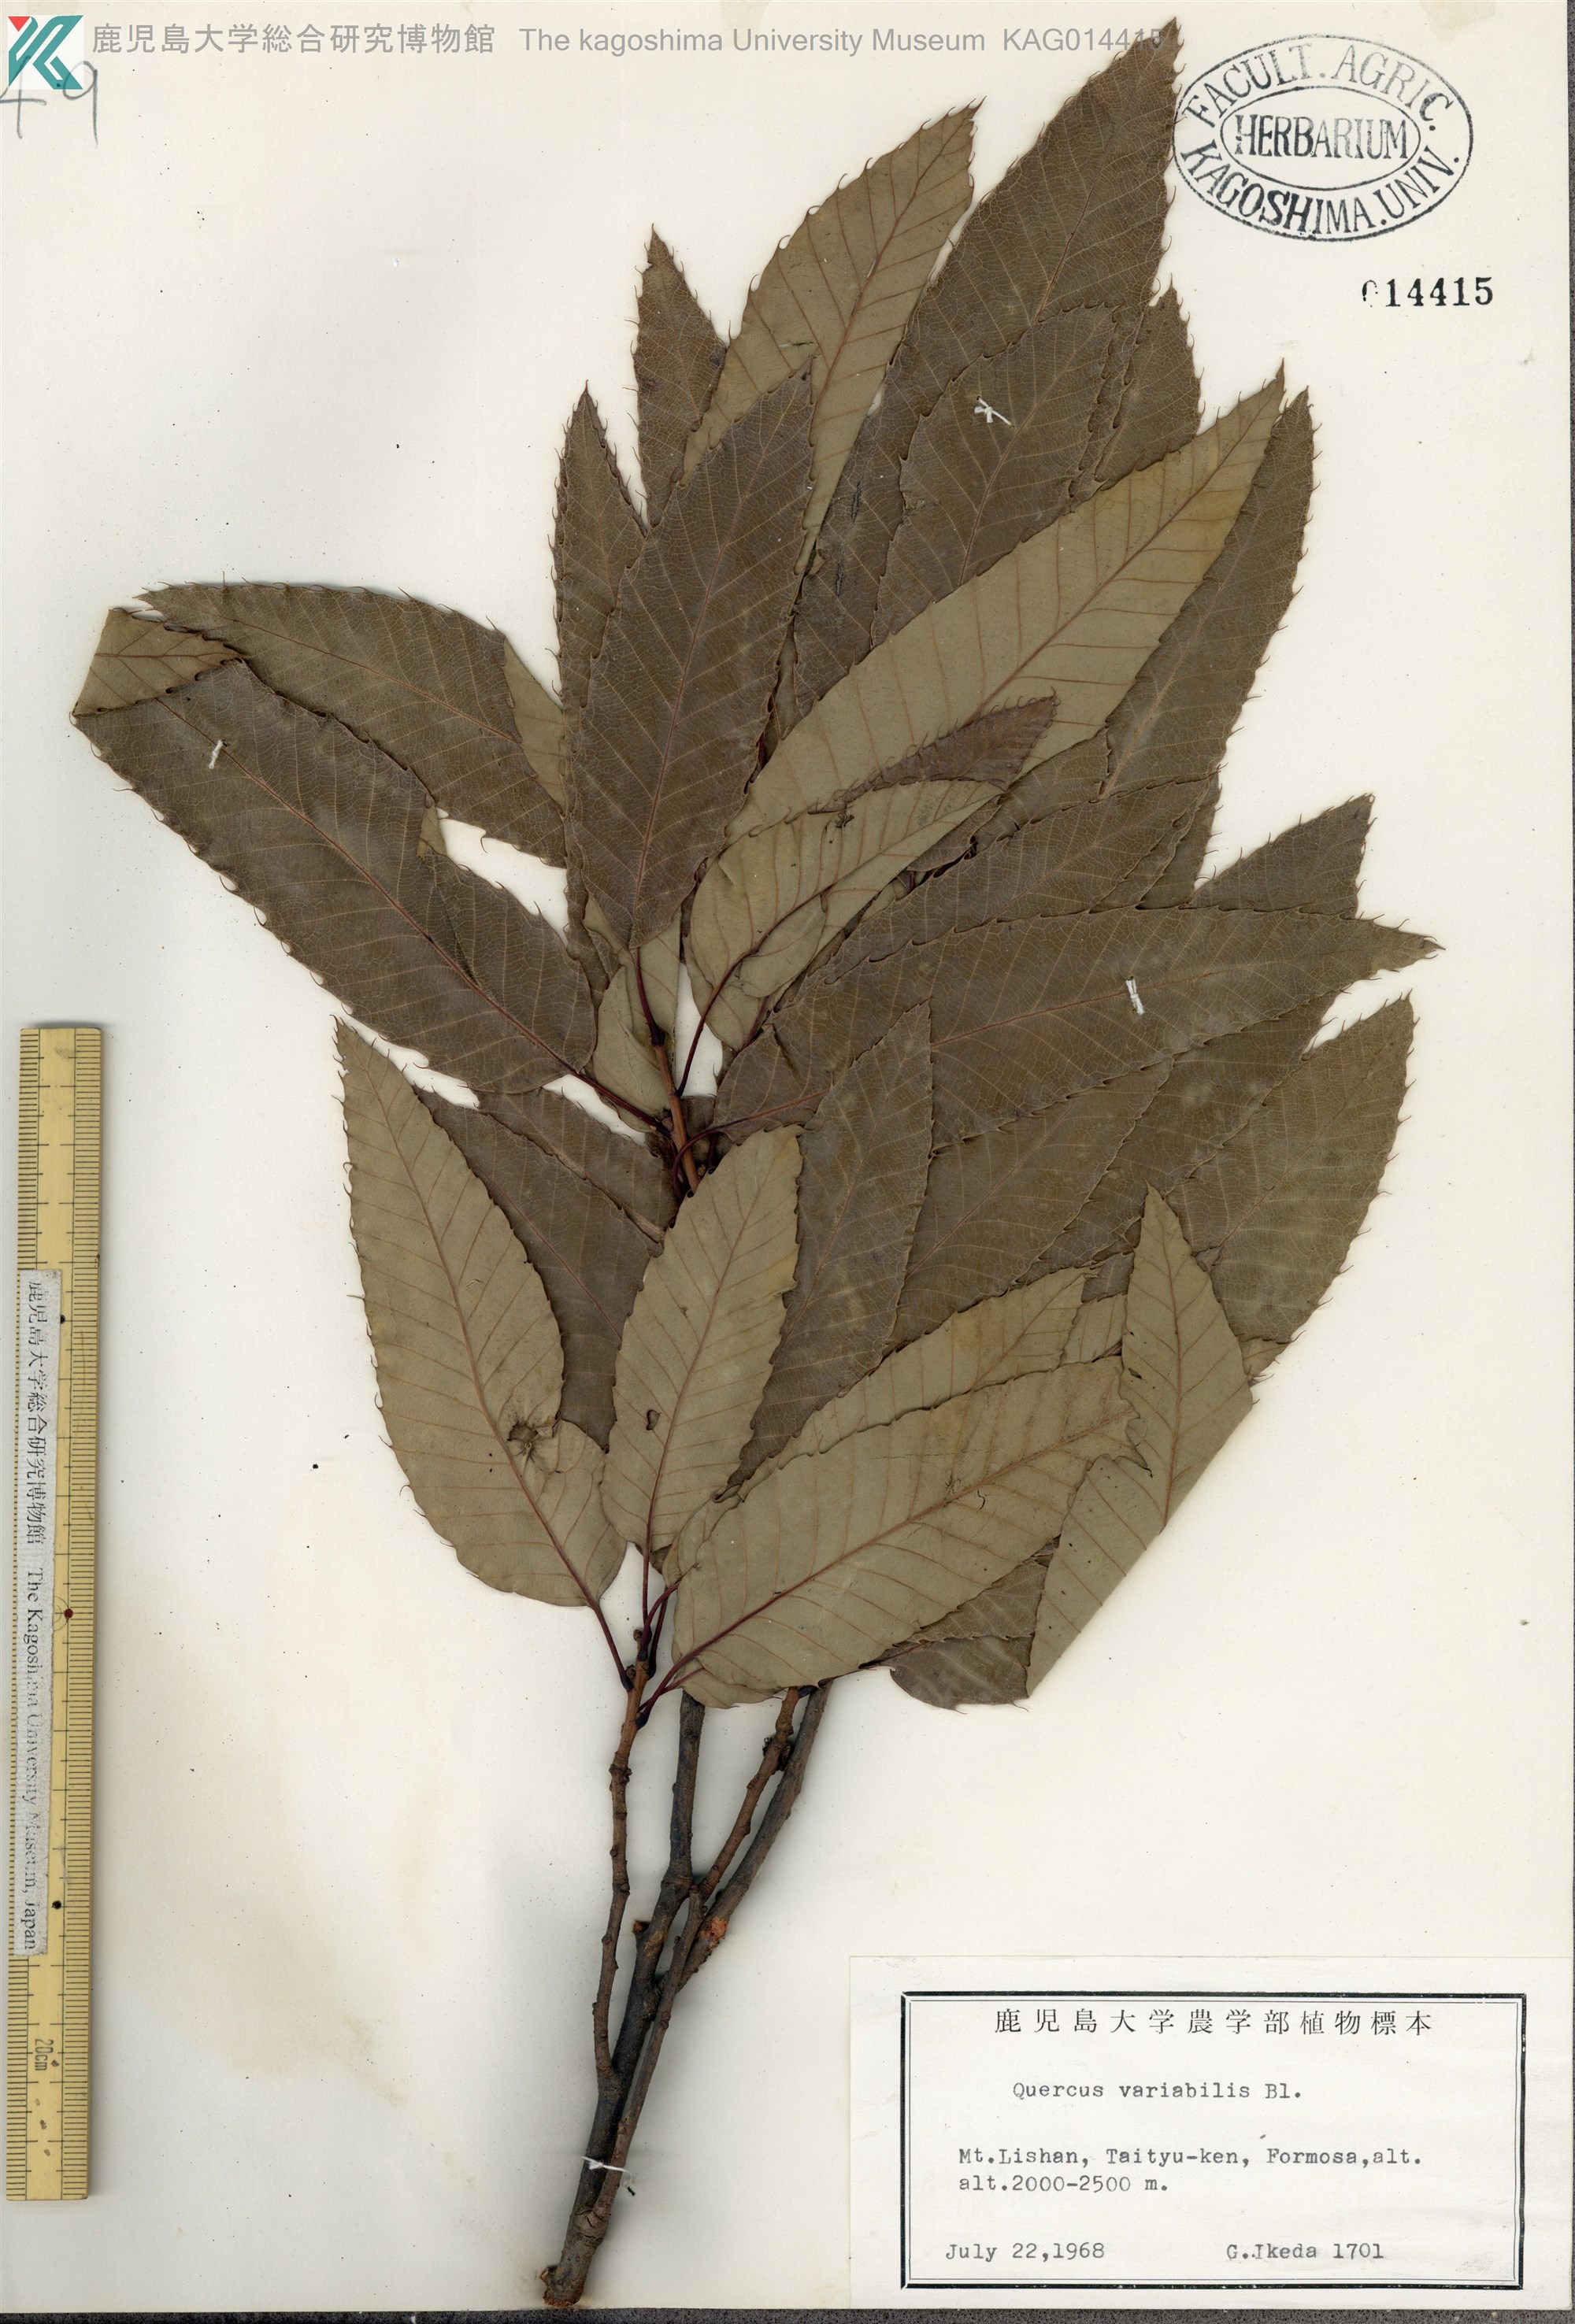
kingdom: Plantae
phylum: Tracheophyta
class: Magnoliopsida
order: Fagales
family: Fagaceae
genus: Quercus
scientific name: Quercus variabilis
